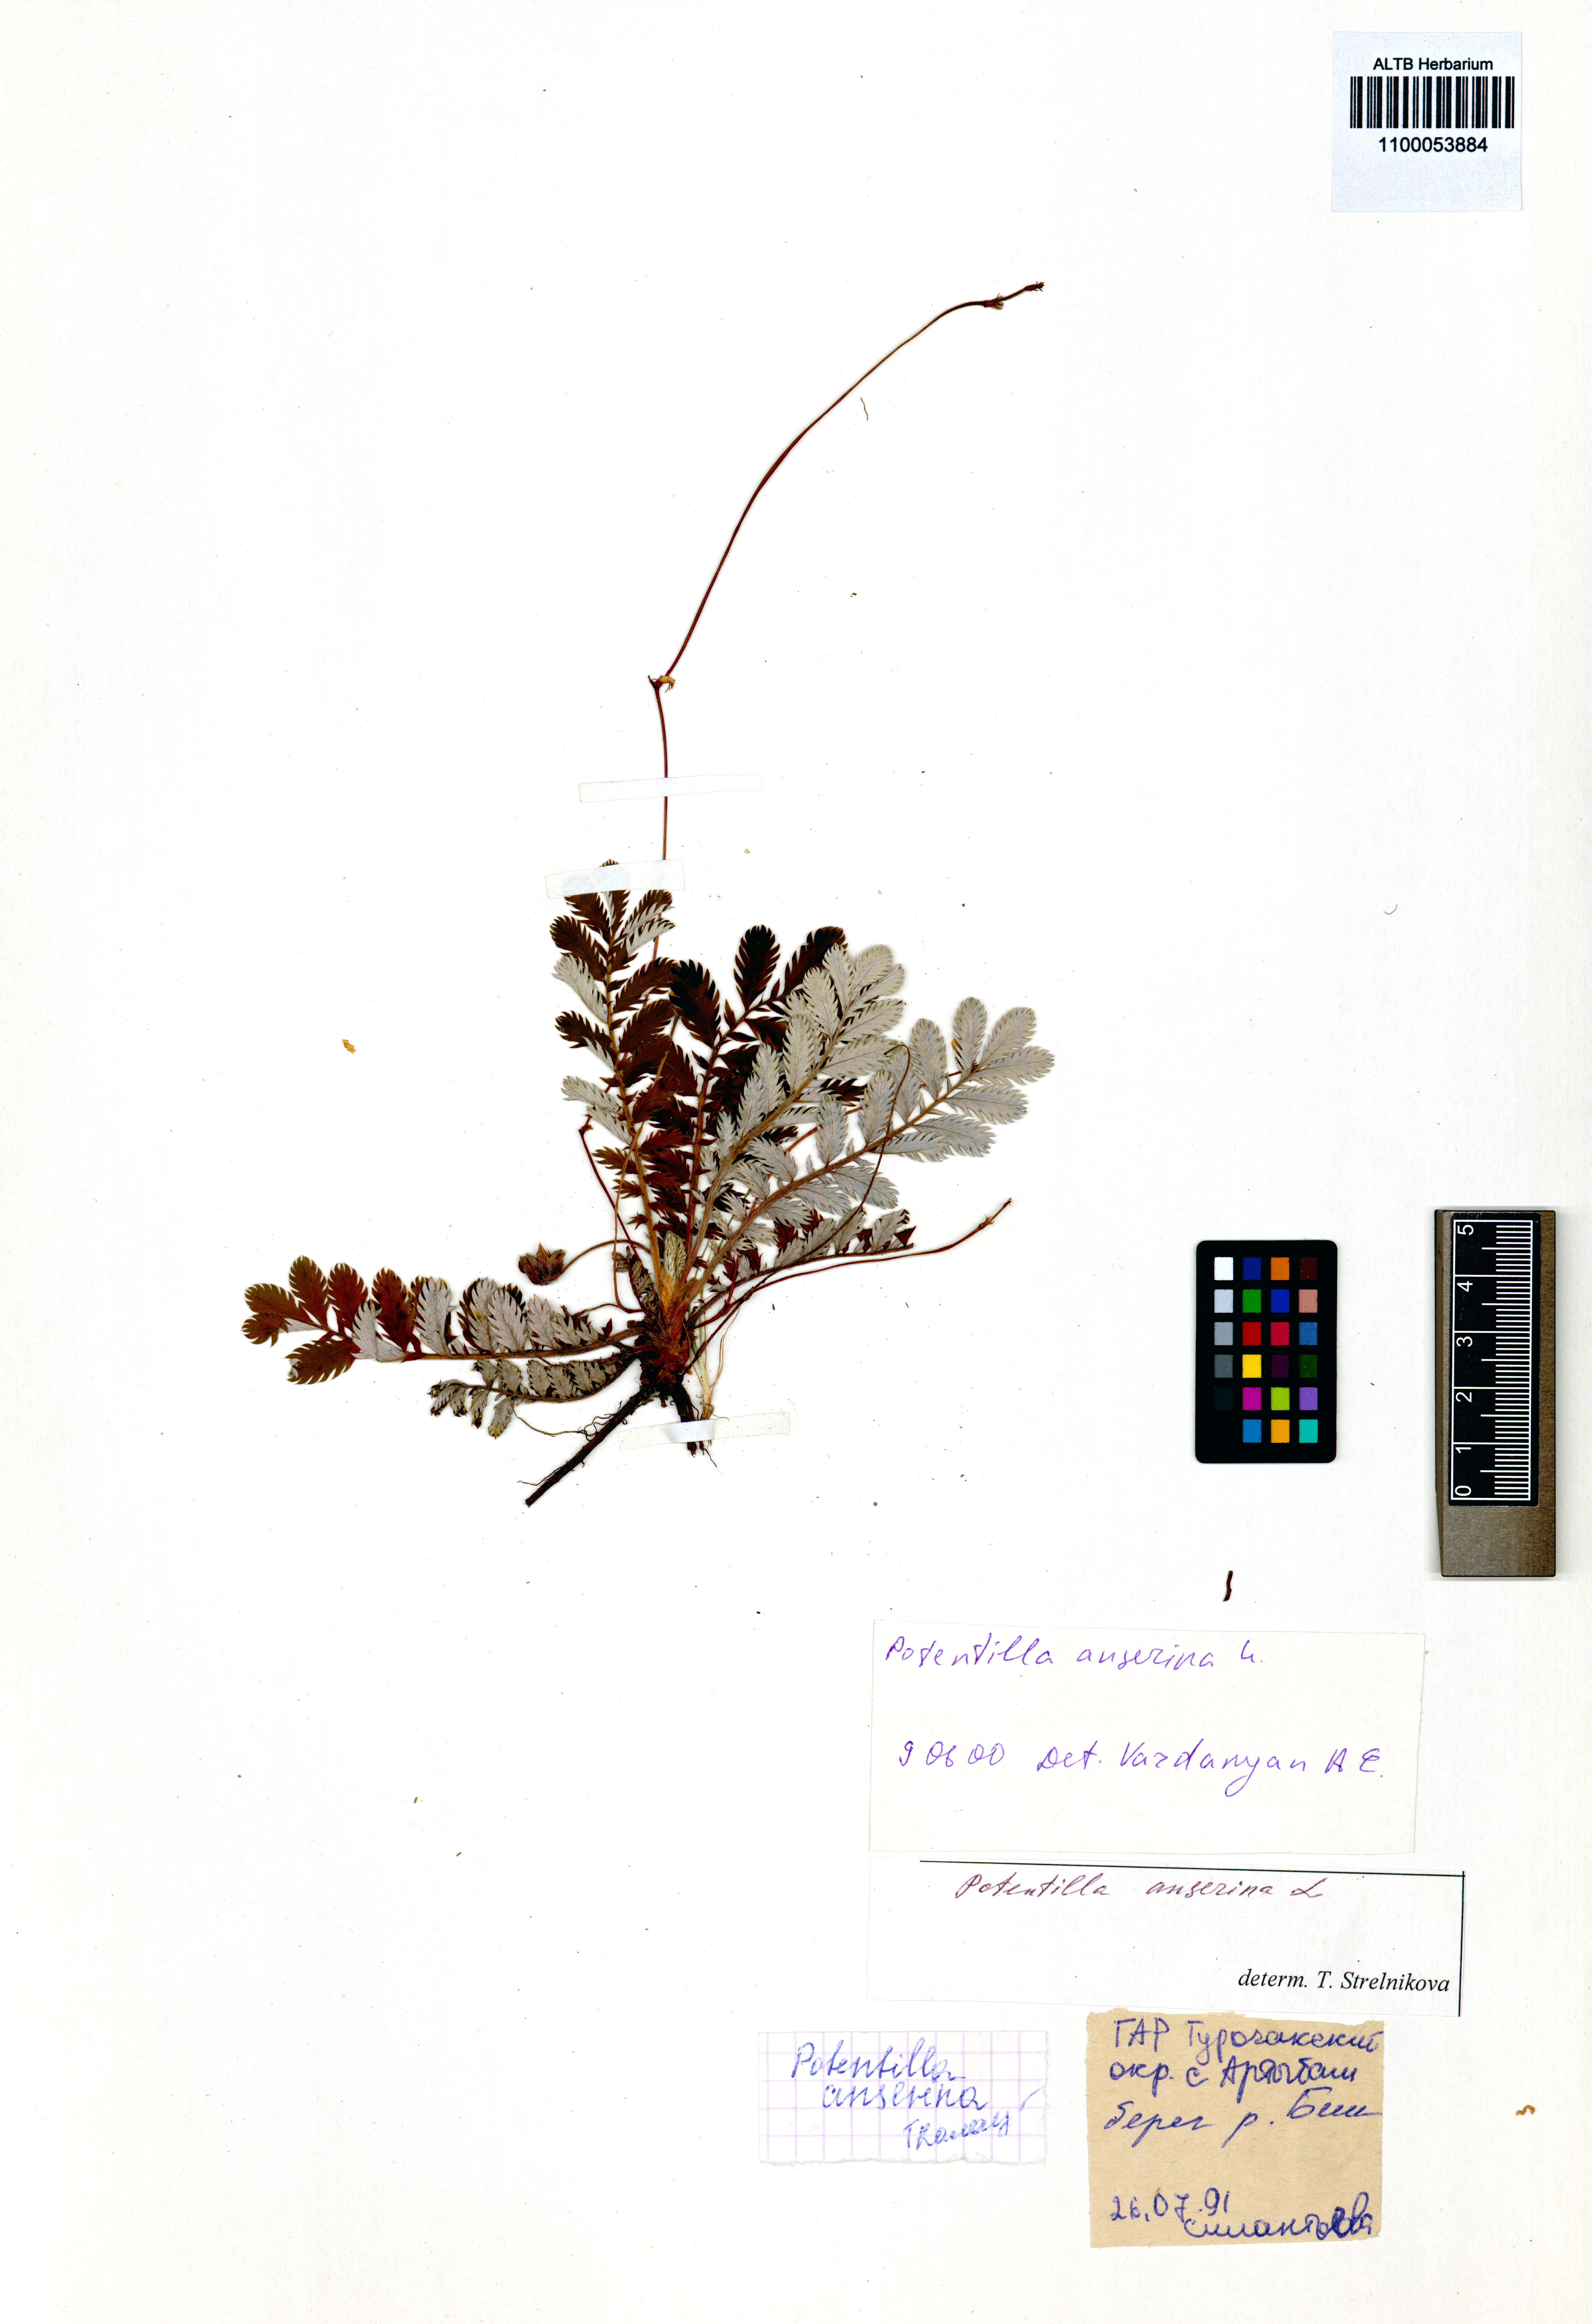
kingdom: Plantae
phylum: Tracheophyta
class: Magnoliopsida
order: Rosales
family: Rosaceae
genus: Argentina
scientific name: Argentina anserina
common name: Common silverweed
